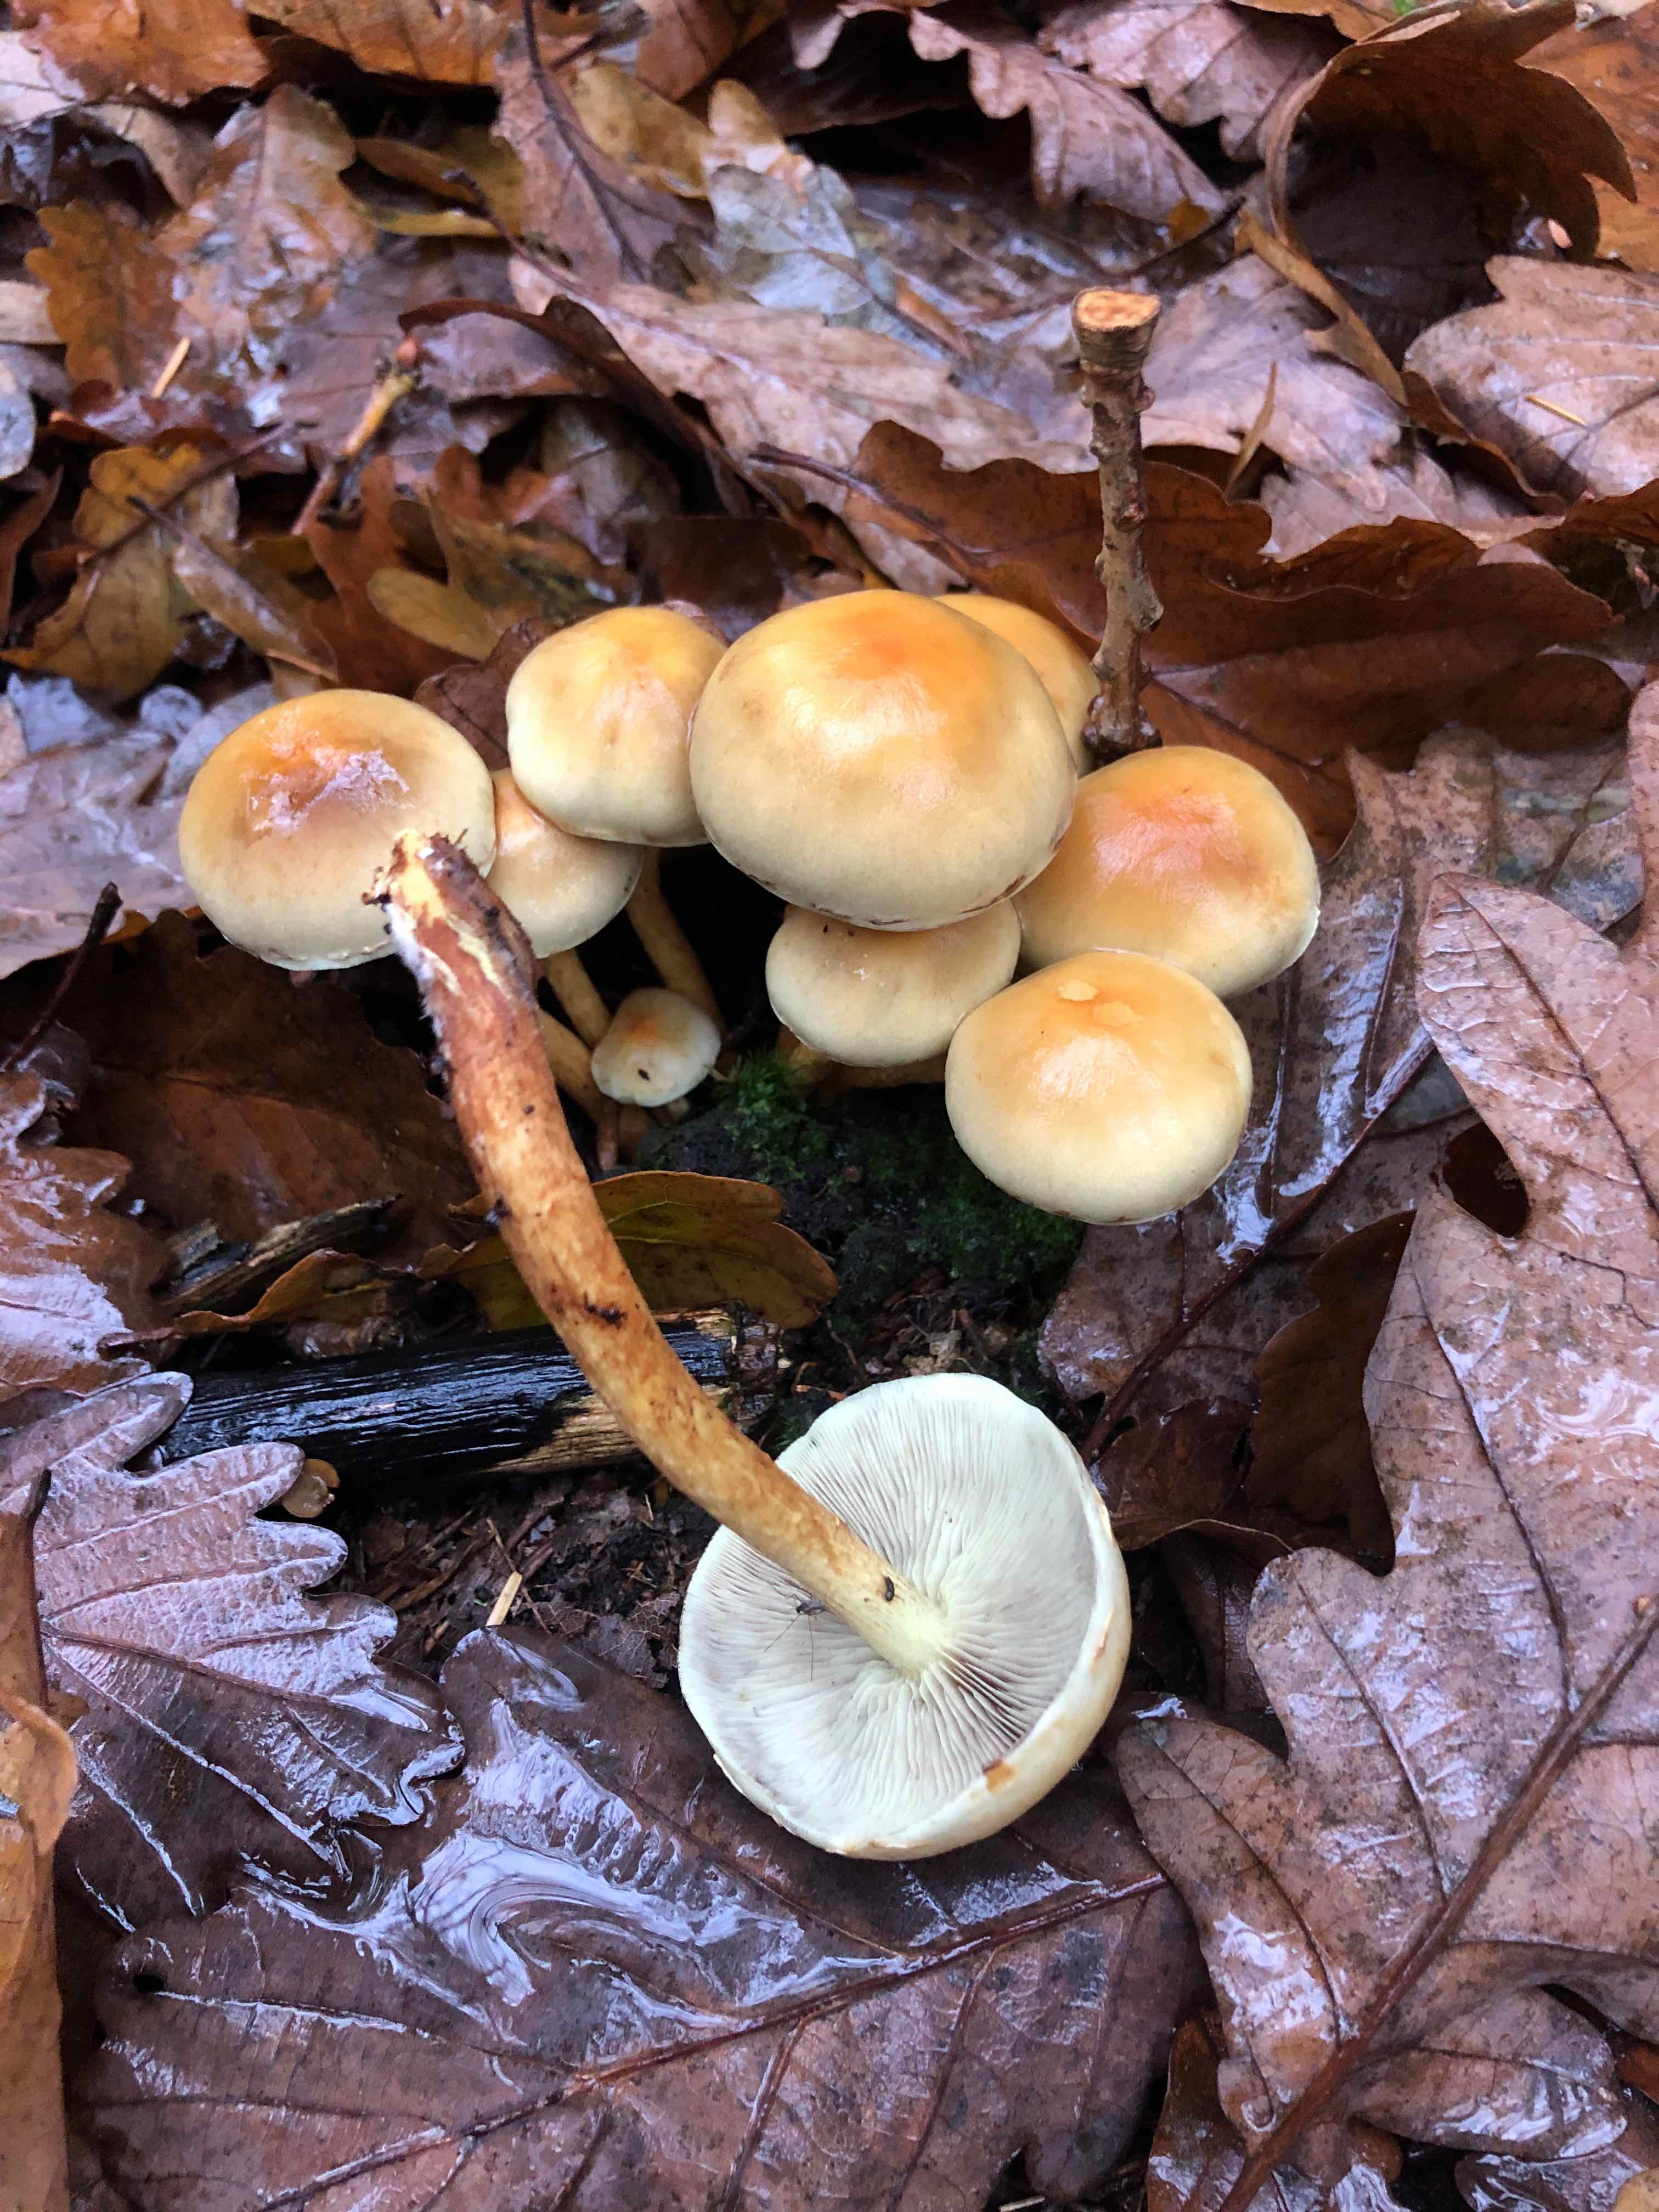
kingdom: Fungi
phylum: Basidiomycota
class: Agaricomycetes
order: Agaricales
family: Strophariaceae
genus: Hypholoma
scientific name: Hypholoma capnoides
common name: gran-svovlhat
